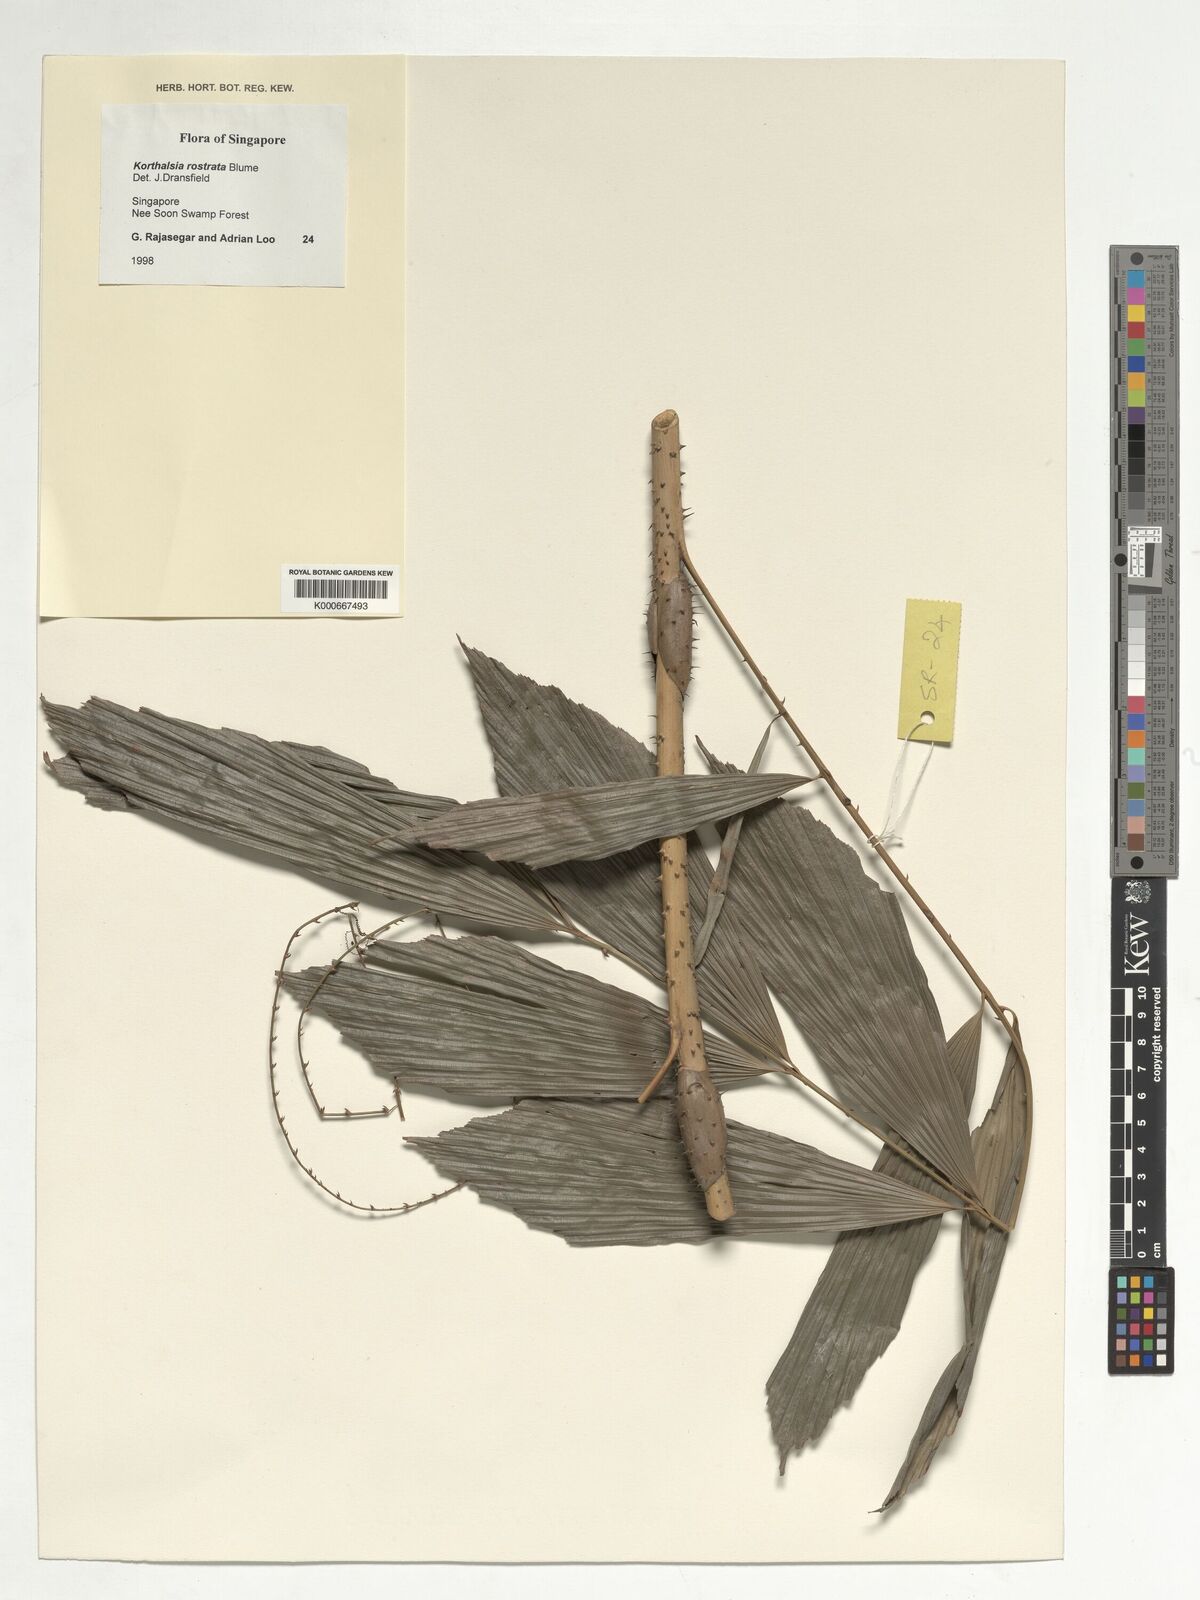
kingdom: Plantae
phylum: Tracheophyta
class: Liliopsida
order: Arecales
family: Arecaceae
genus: Korthalsia
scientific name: Korthalsia rostrata
